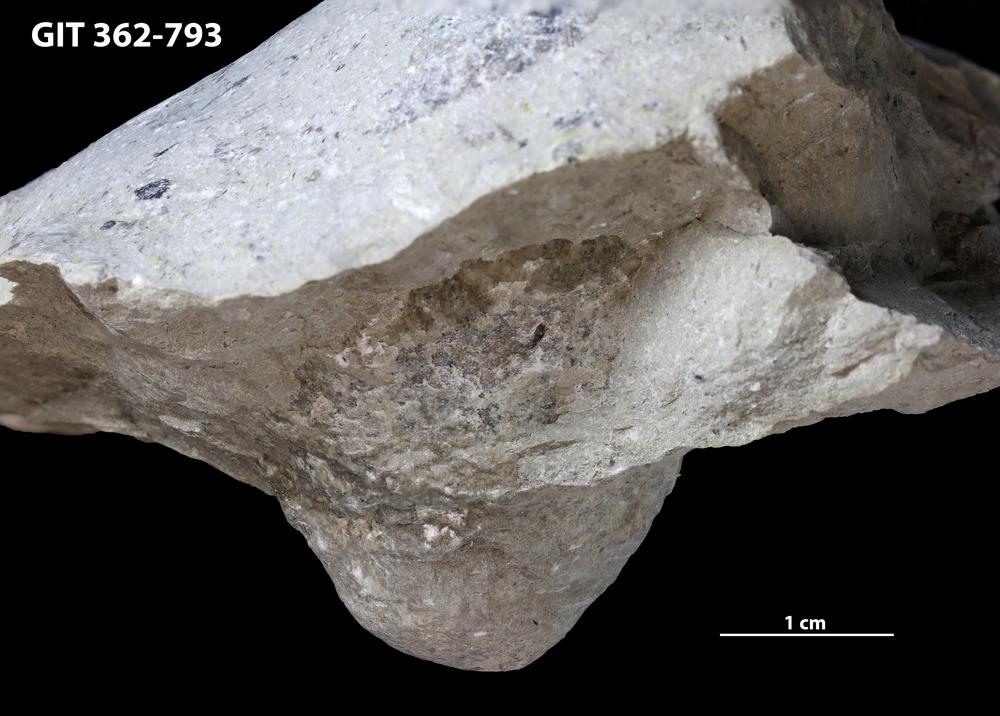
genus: Conichnus
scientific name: Conichnus
